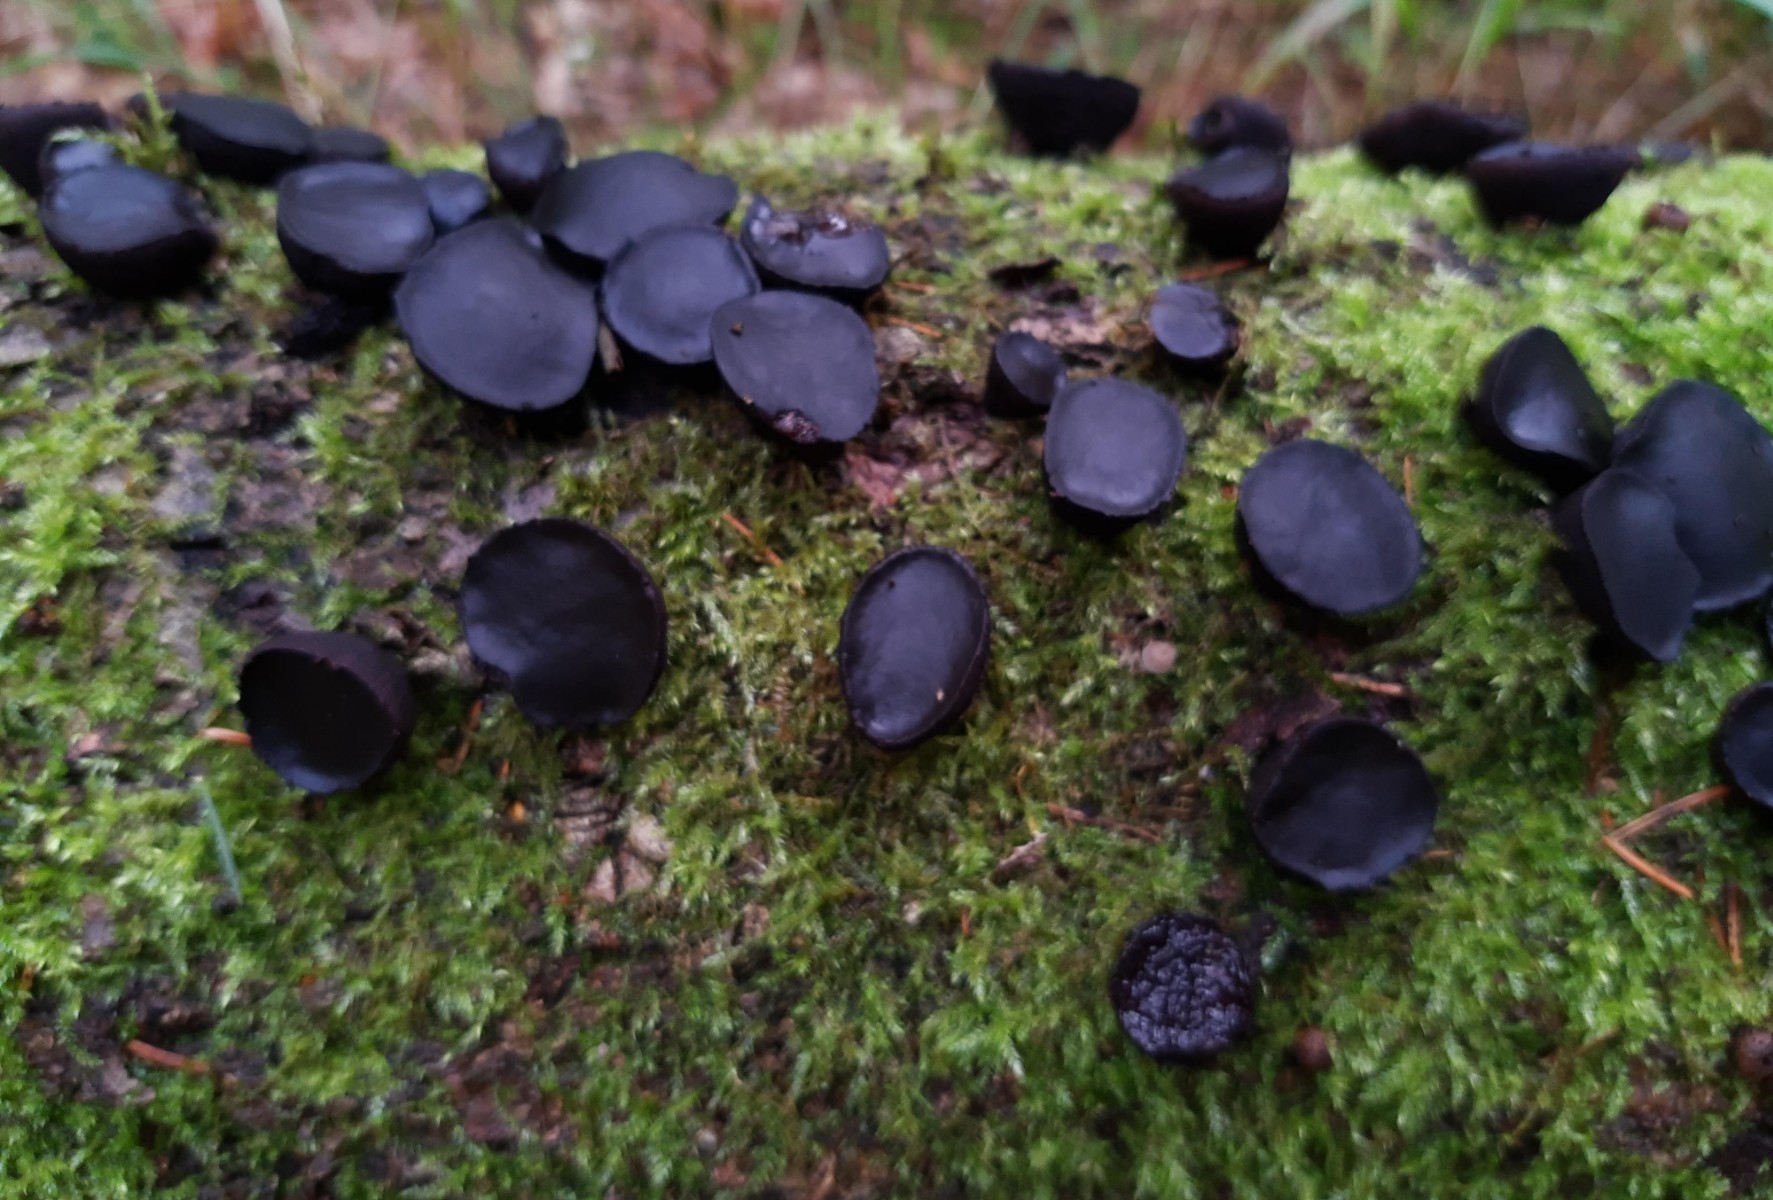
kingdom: Fungi
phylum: Ascomycota
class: Leotiomycetes
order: Phacidiales
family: Phacidiaceae
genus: Bulgaria
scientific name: Bulgaria inquinans
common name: afsmittende topsvamp
